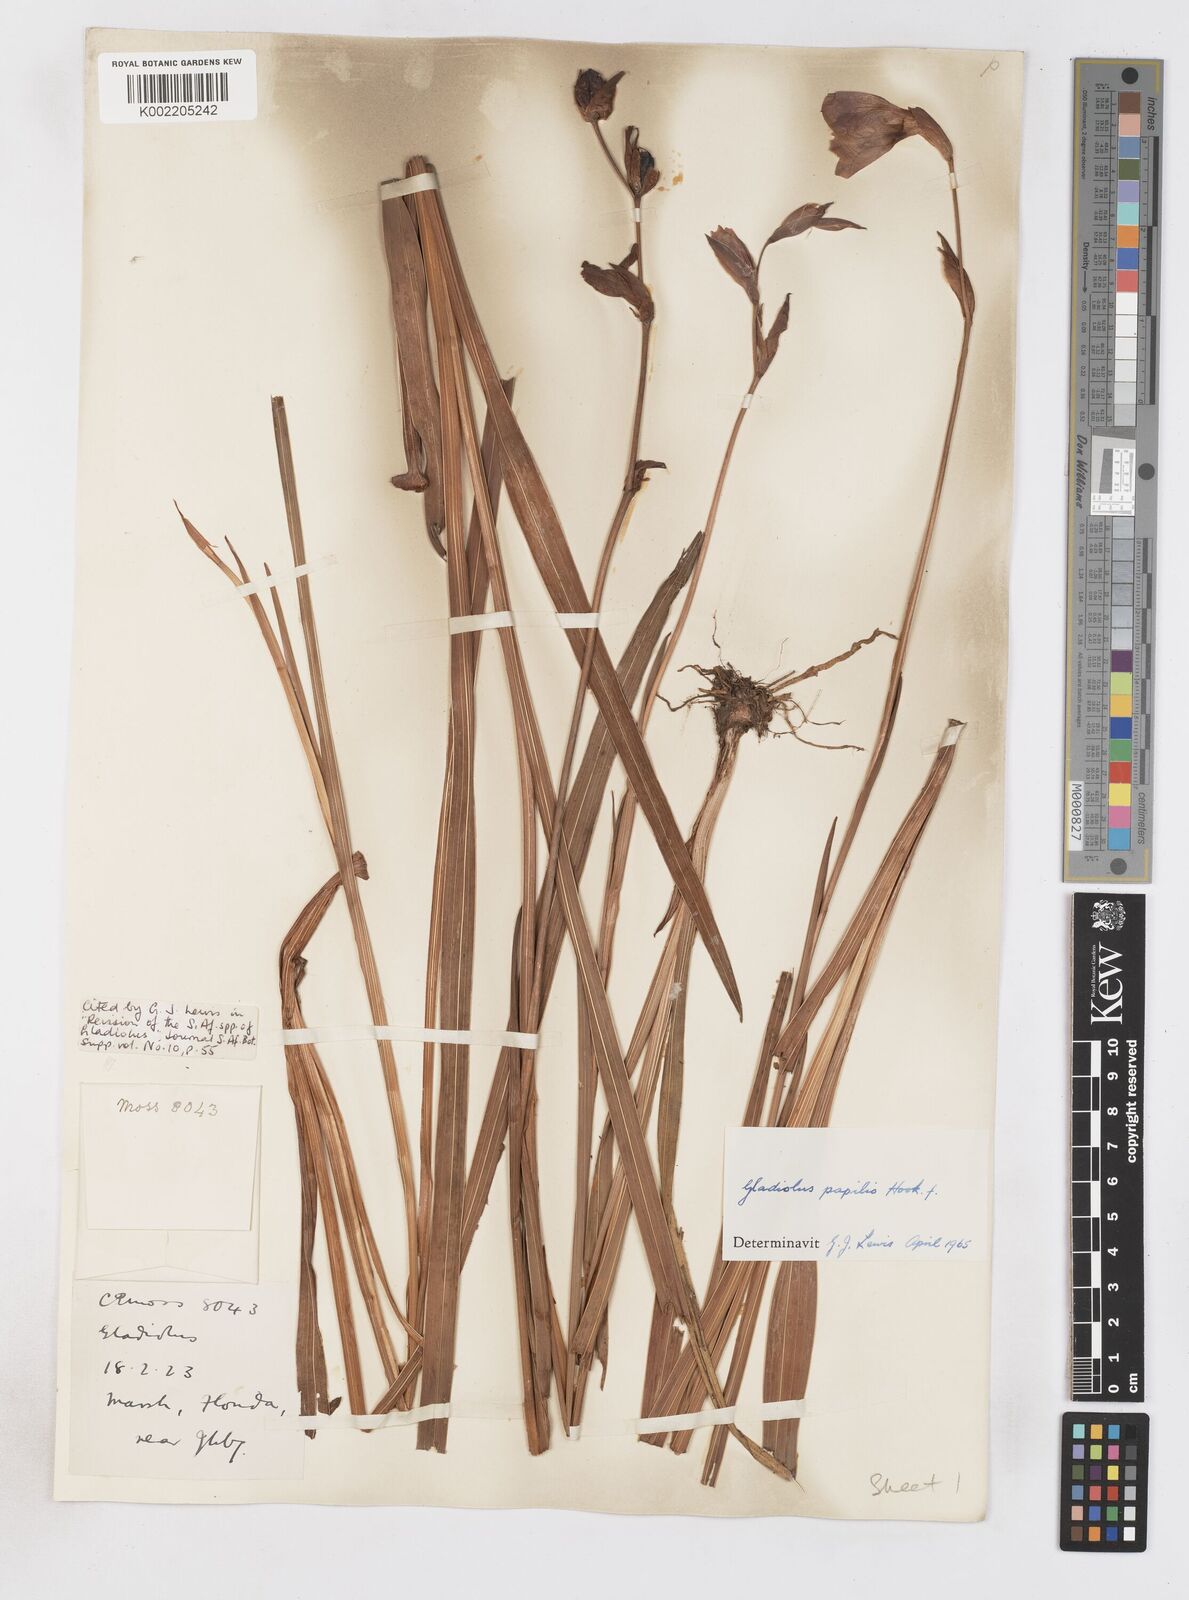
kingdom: Plantae
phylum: Tracheophyta
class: Liliopsida
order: Asparagales
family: Iridaceae
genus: Gladiolus
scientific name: Gladiolus papilio
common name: Goldblotch gladiolus
